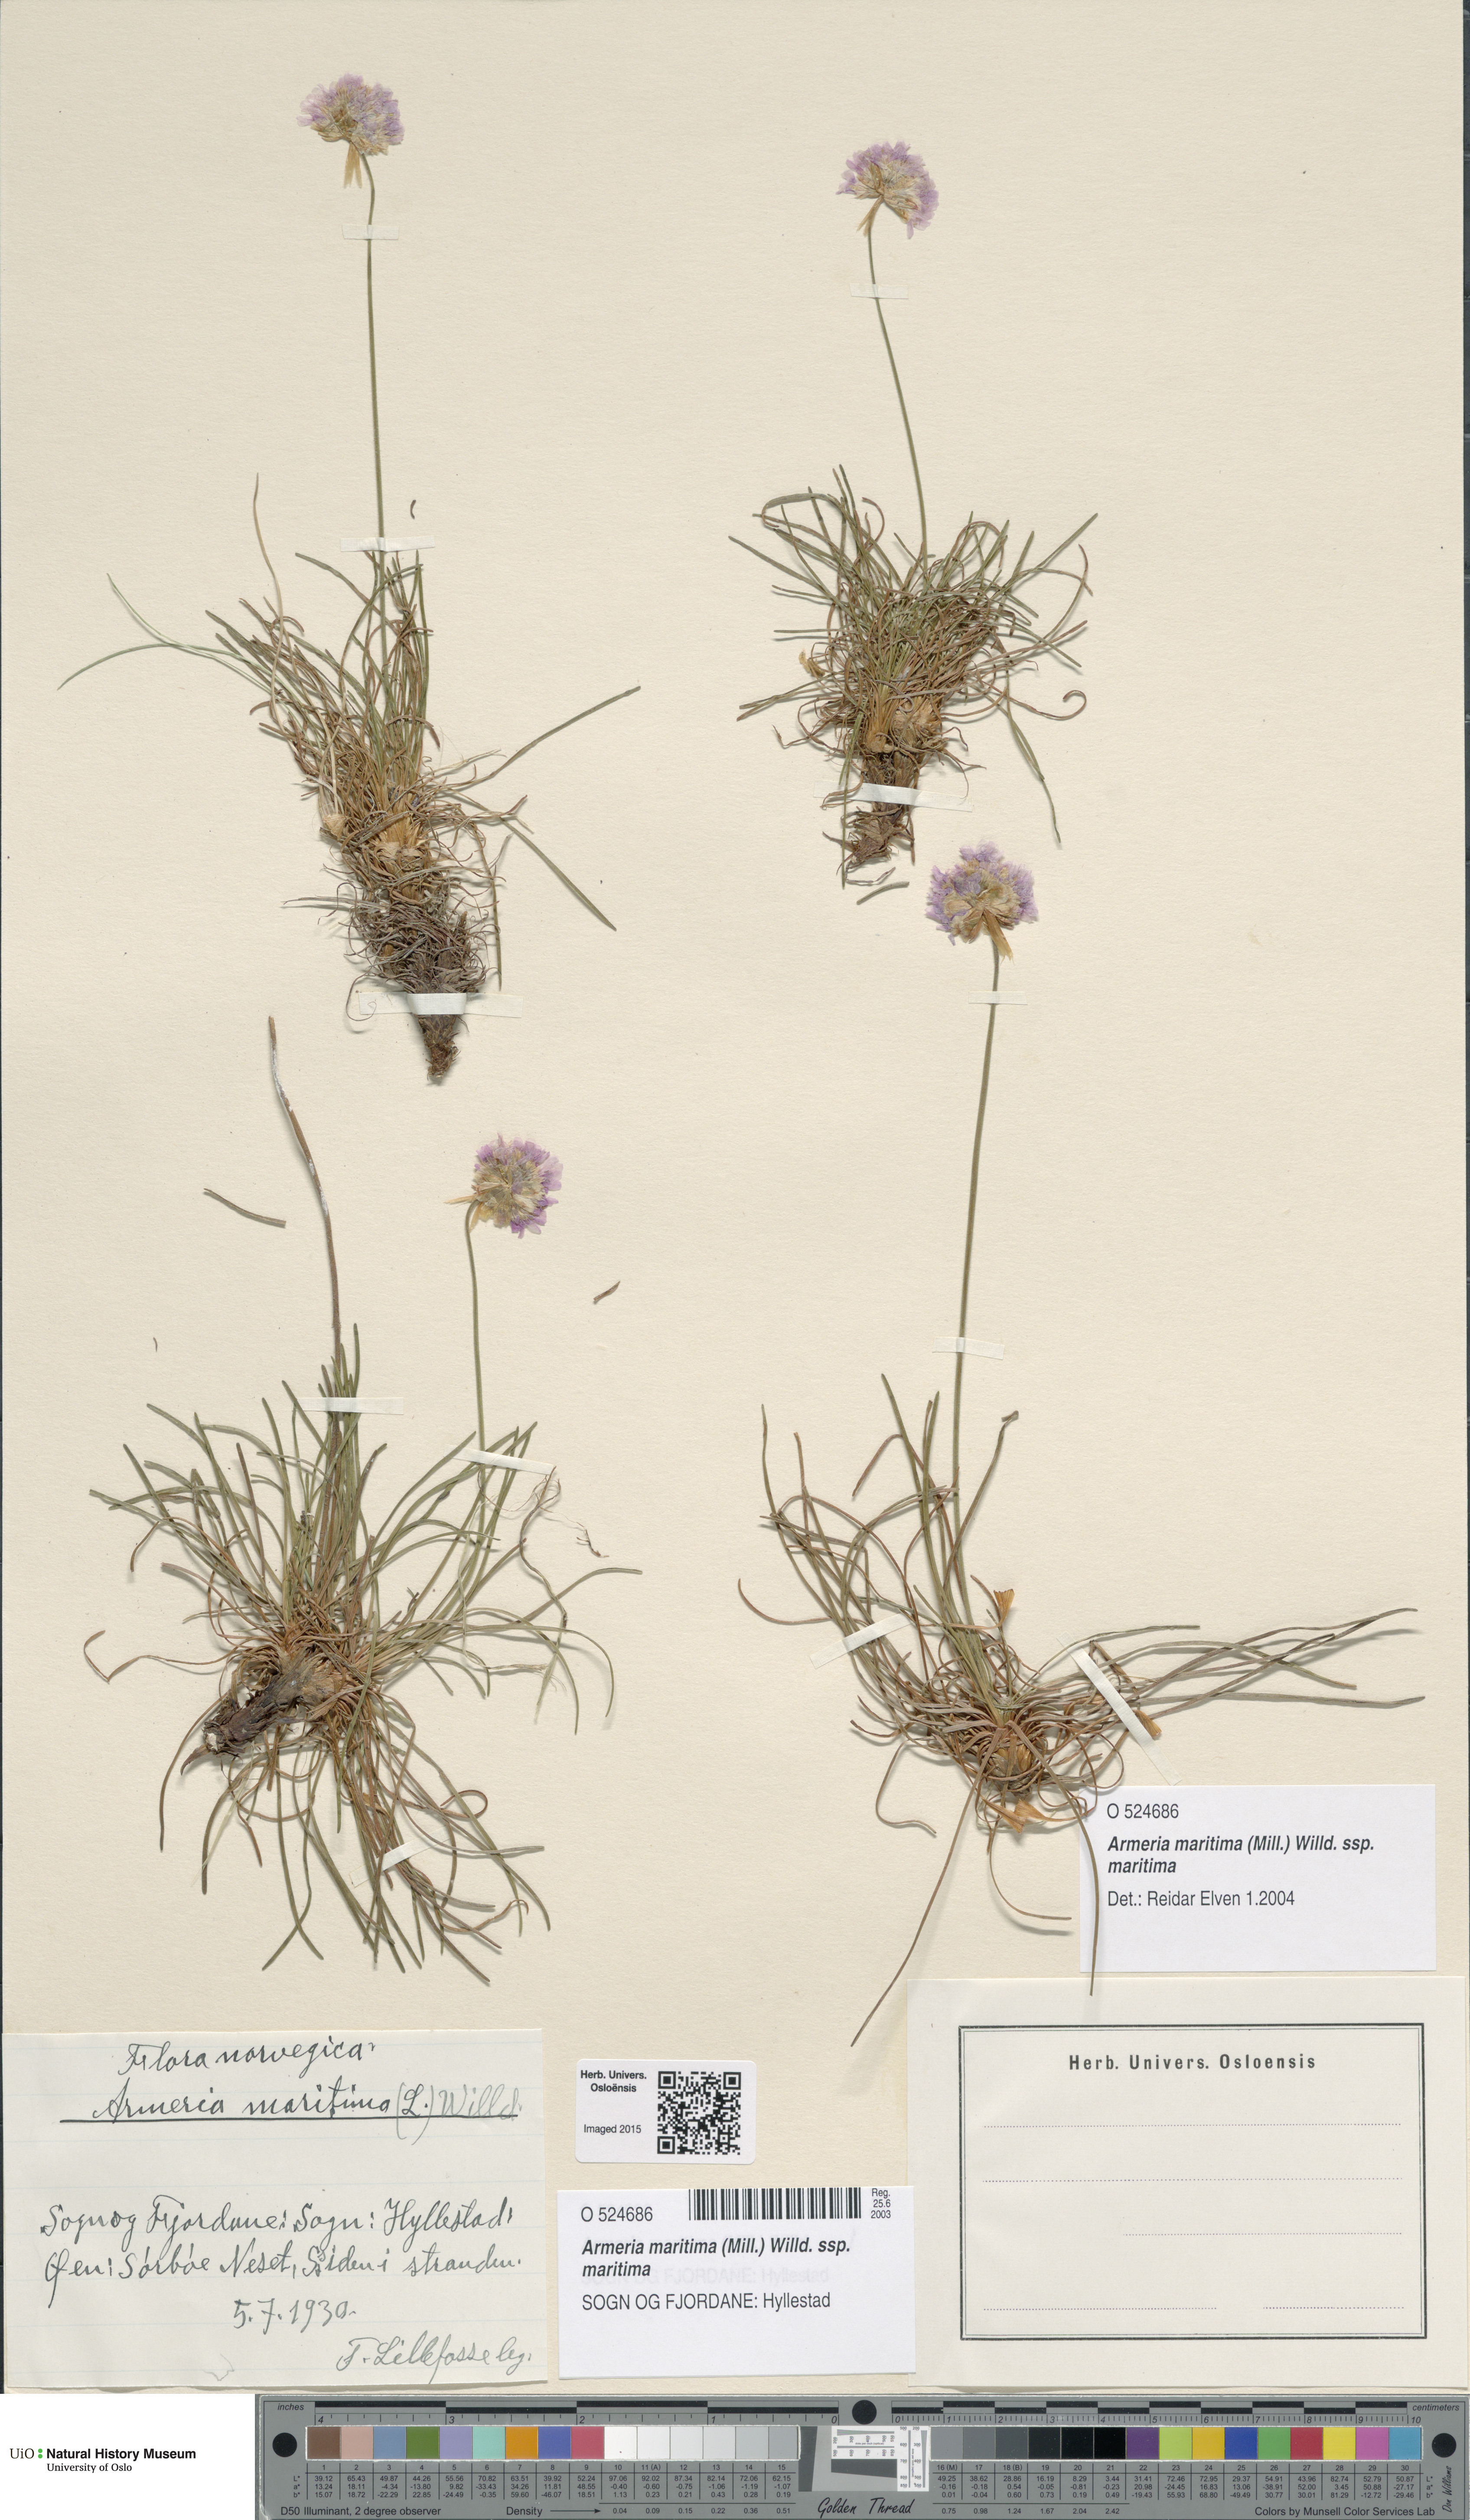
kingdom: Plantae
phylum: Tracheophyta
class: Magnoliopsida
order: Caryophyllales
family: Plumbaginaceae
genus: Armeria
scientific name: Armeria maritima
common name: Thrift
